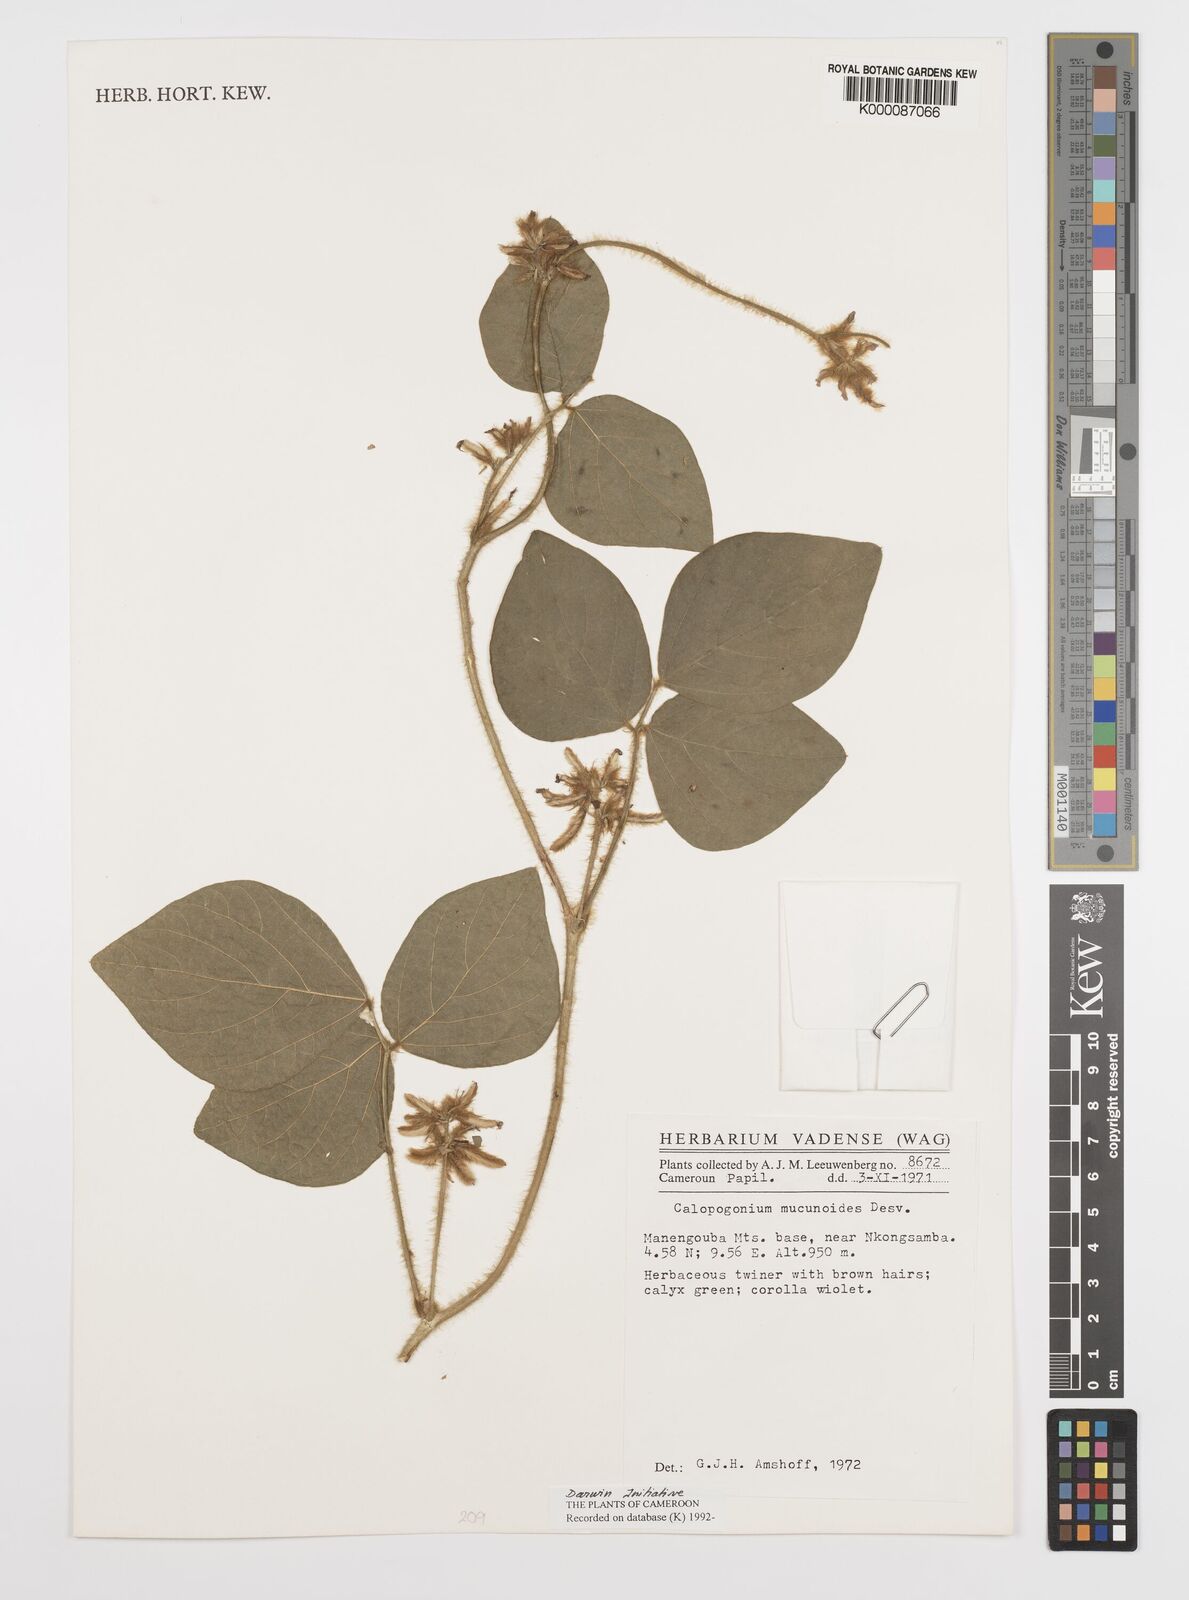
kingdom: Plantae
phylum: Tracheophyta
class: Magnoliopsida
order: Fabales
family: Fabaceae
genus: Calopogonium
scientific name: Calopogonium mucunoides
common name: Calopo
